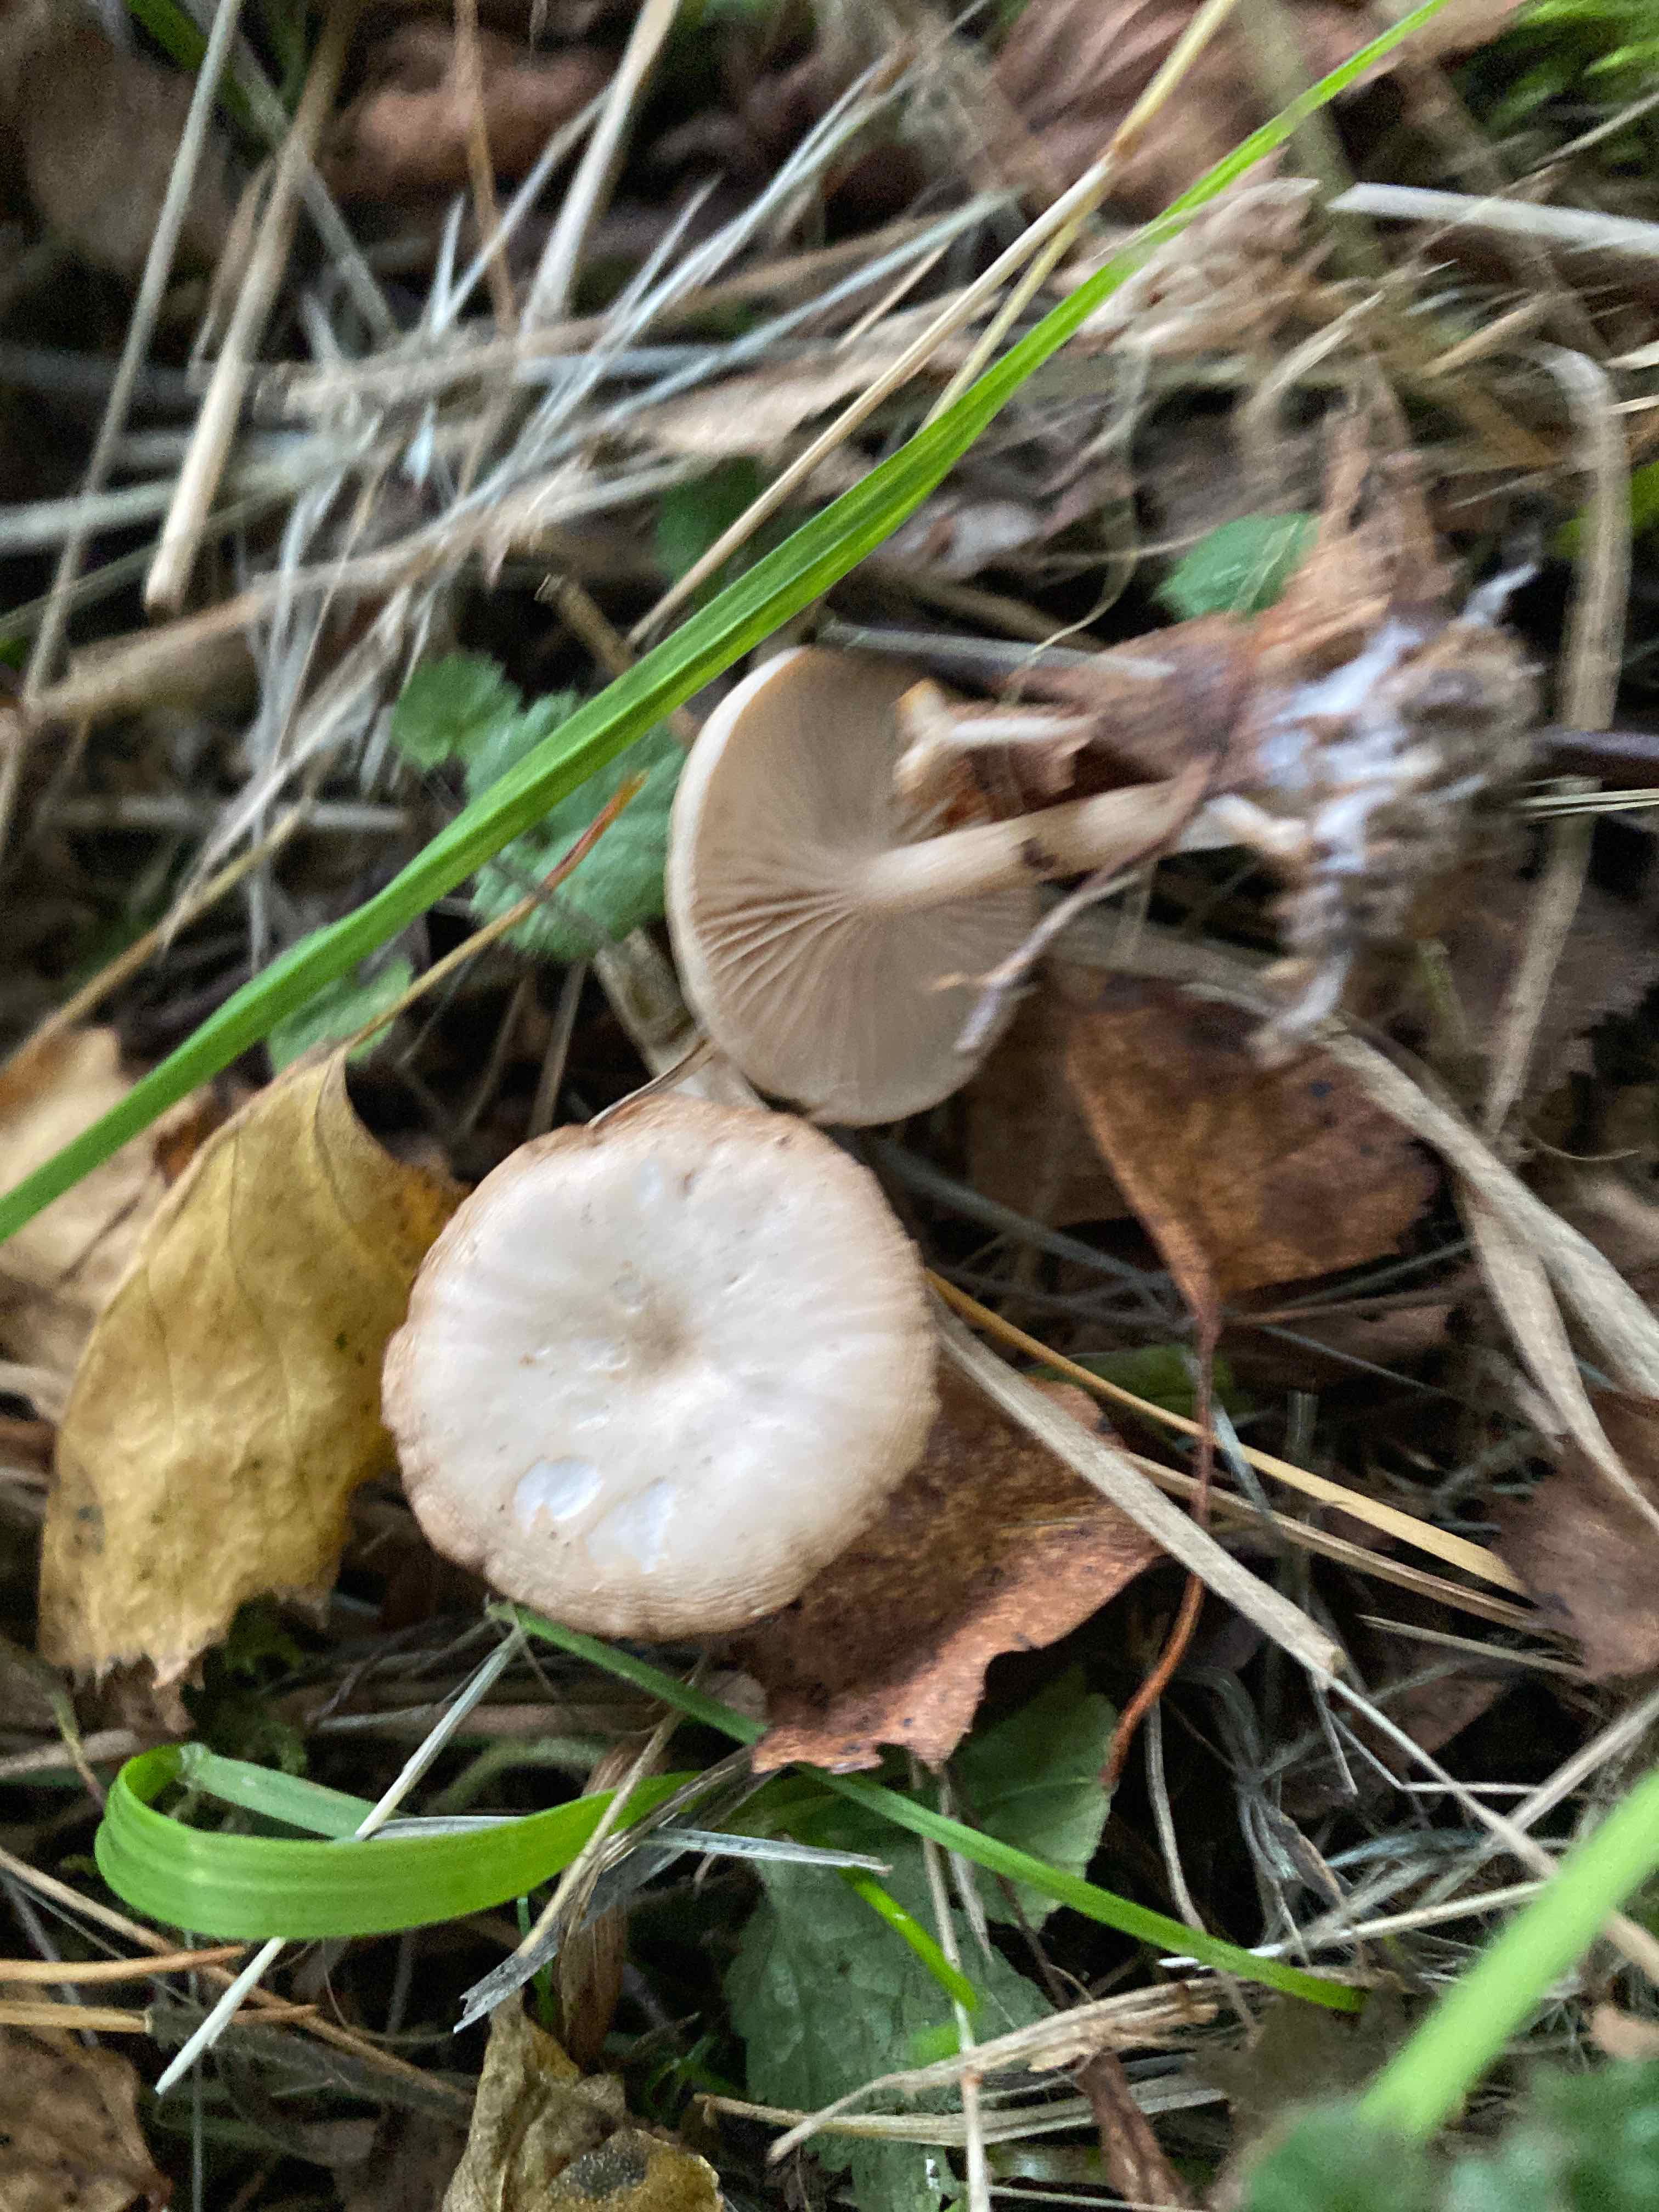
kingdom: Fungi
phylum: Basidiomycota
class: Agaricomycetes
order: Russulales
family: Russulaceae
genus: Lactarius
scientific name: Lactarius glyciosmus
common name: kokos-mælkehat
